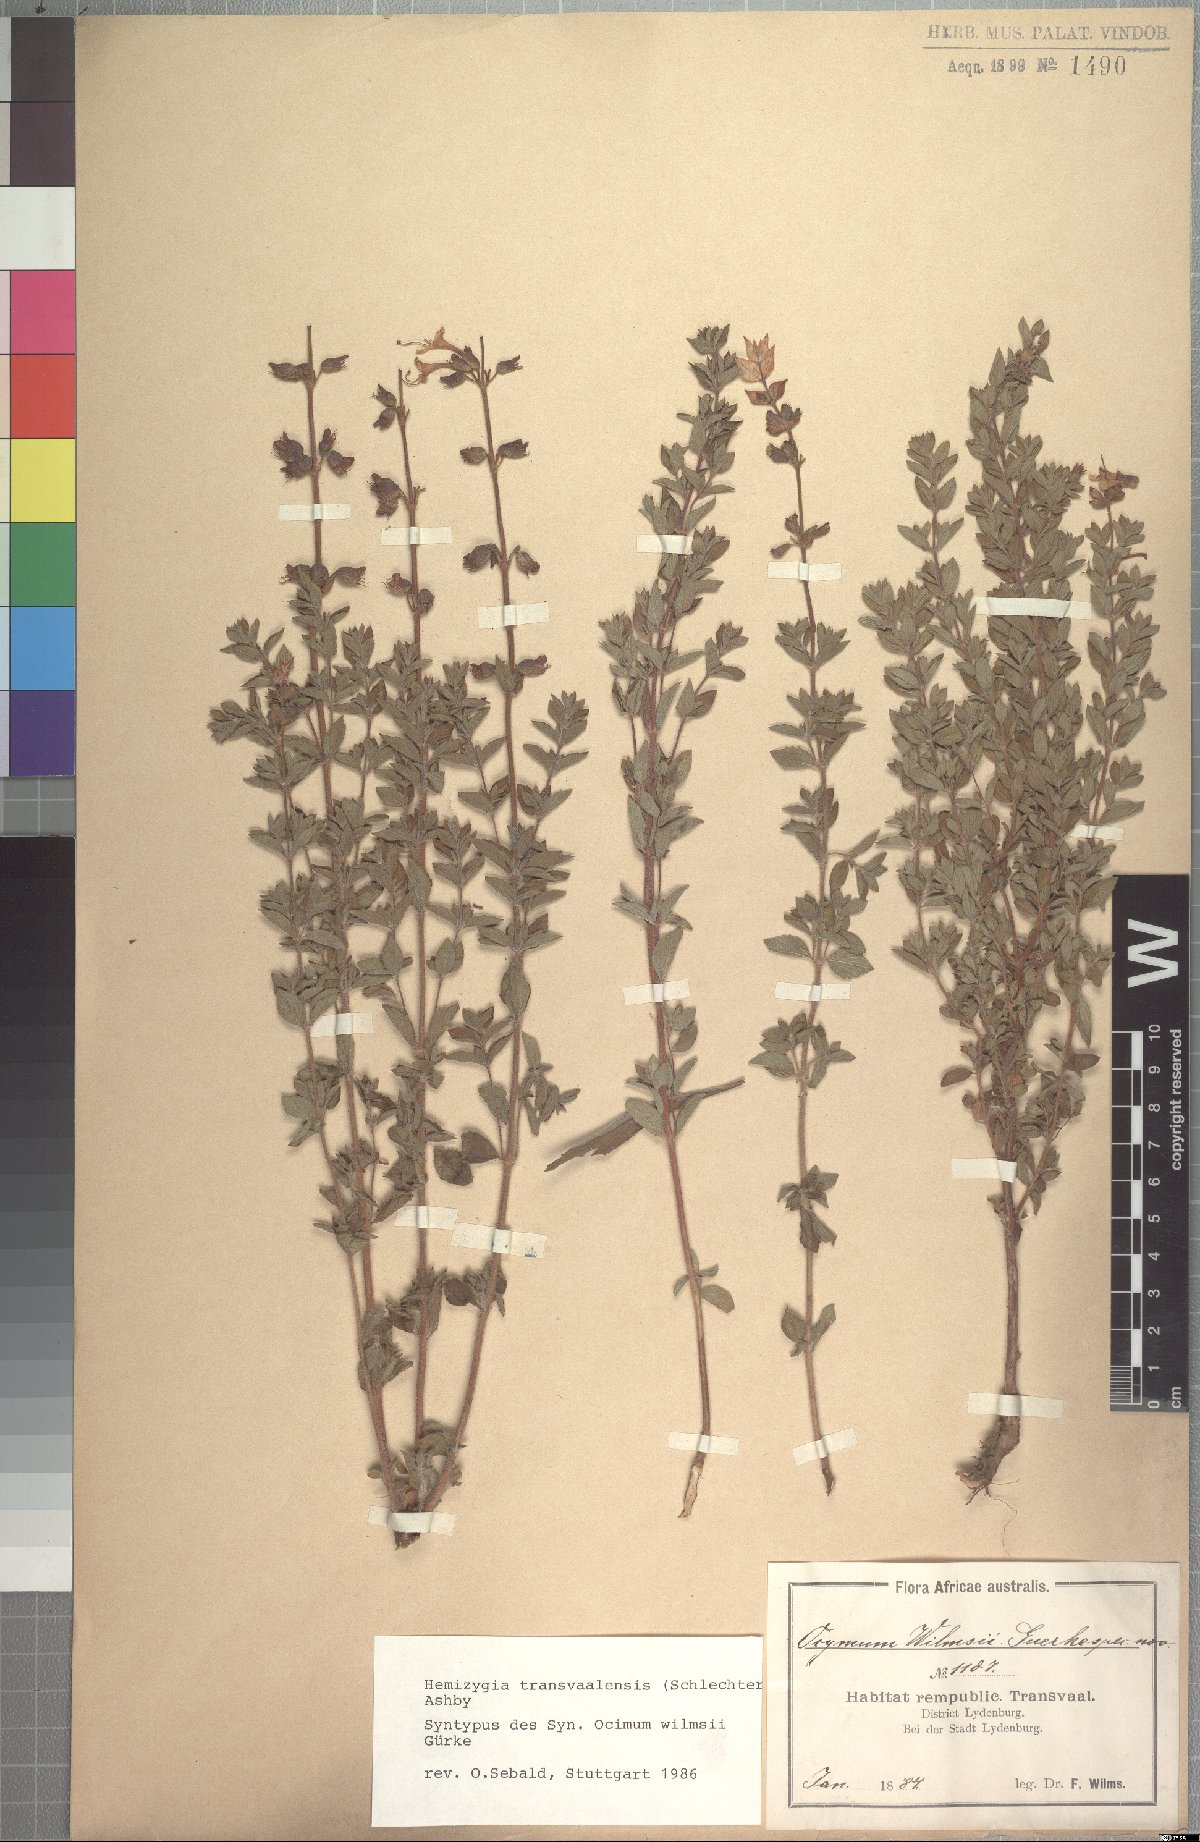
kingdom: Plantae
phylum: Tracheophyta
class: Magnoliopsida
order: Lamiales
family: Lamiaceae
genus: Syncolostemon
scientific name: Syncolostemon transvaalensis
